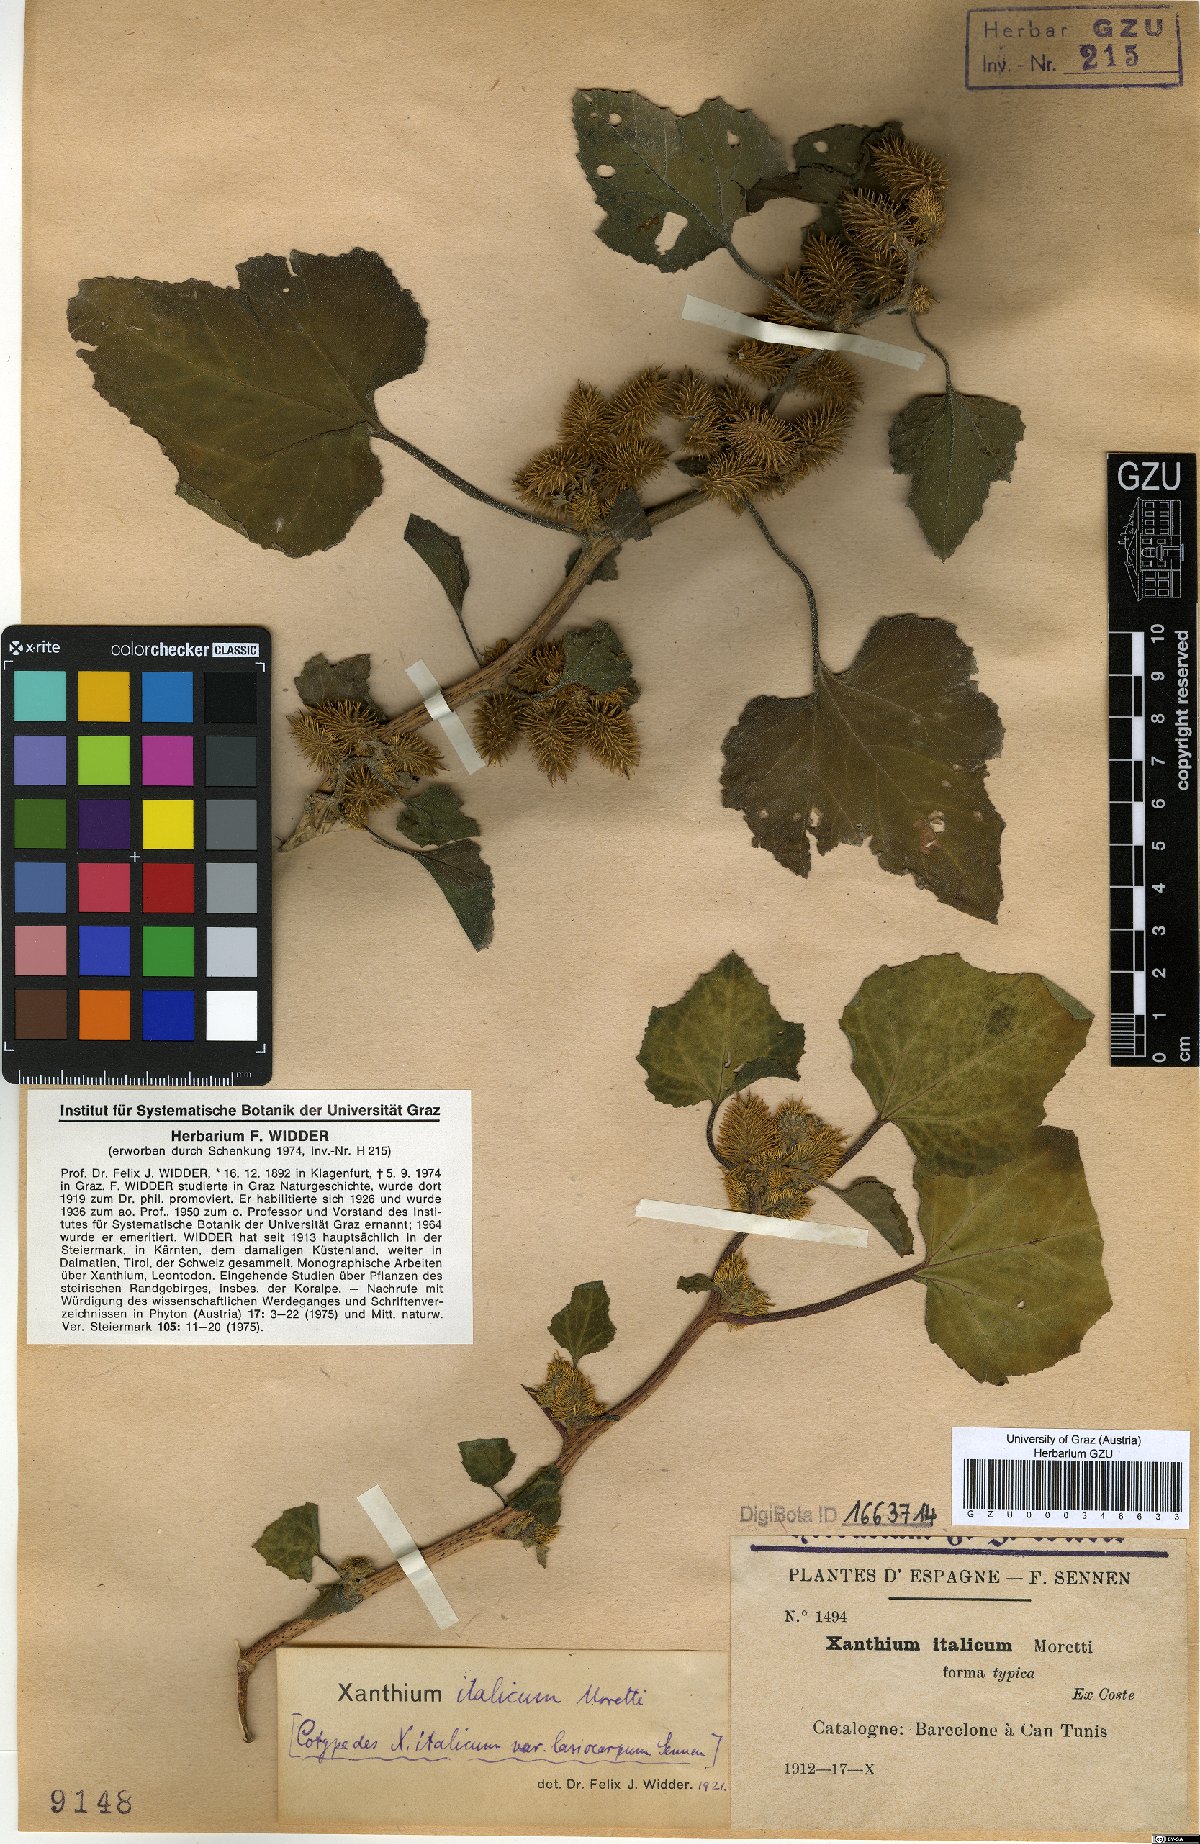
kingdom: Plantae
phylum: Tracheophyta
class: Magnoliopsida
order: Asterales
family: Asteraceae
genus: Xanthium
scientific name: Xanthium orientale
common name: Californian burr
